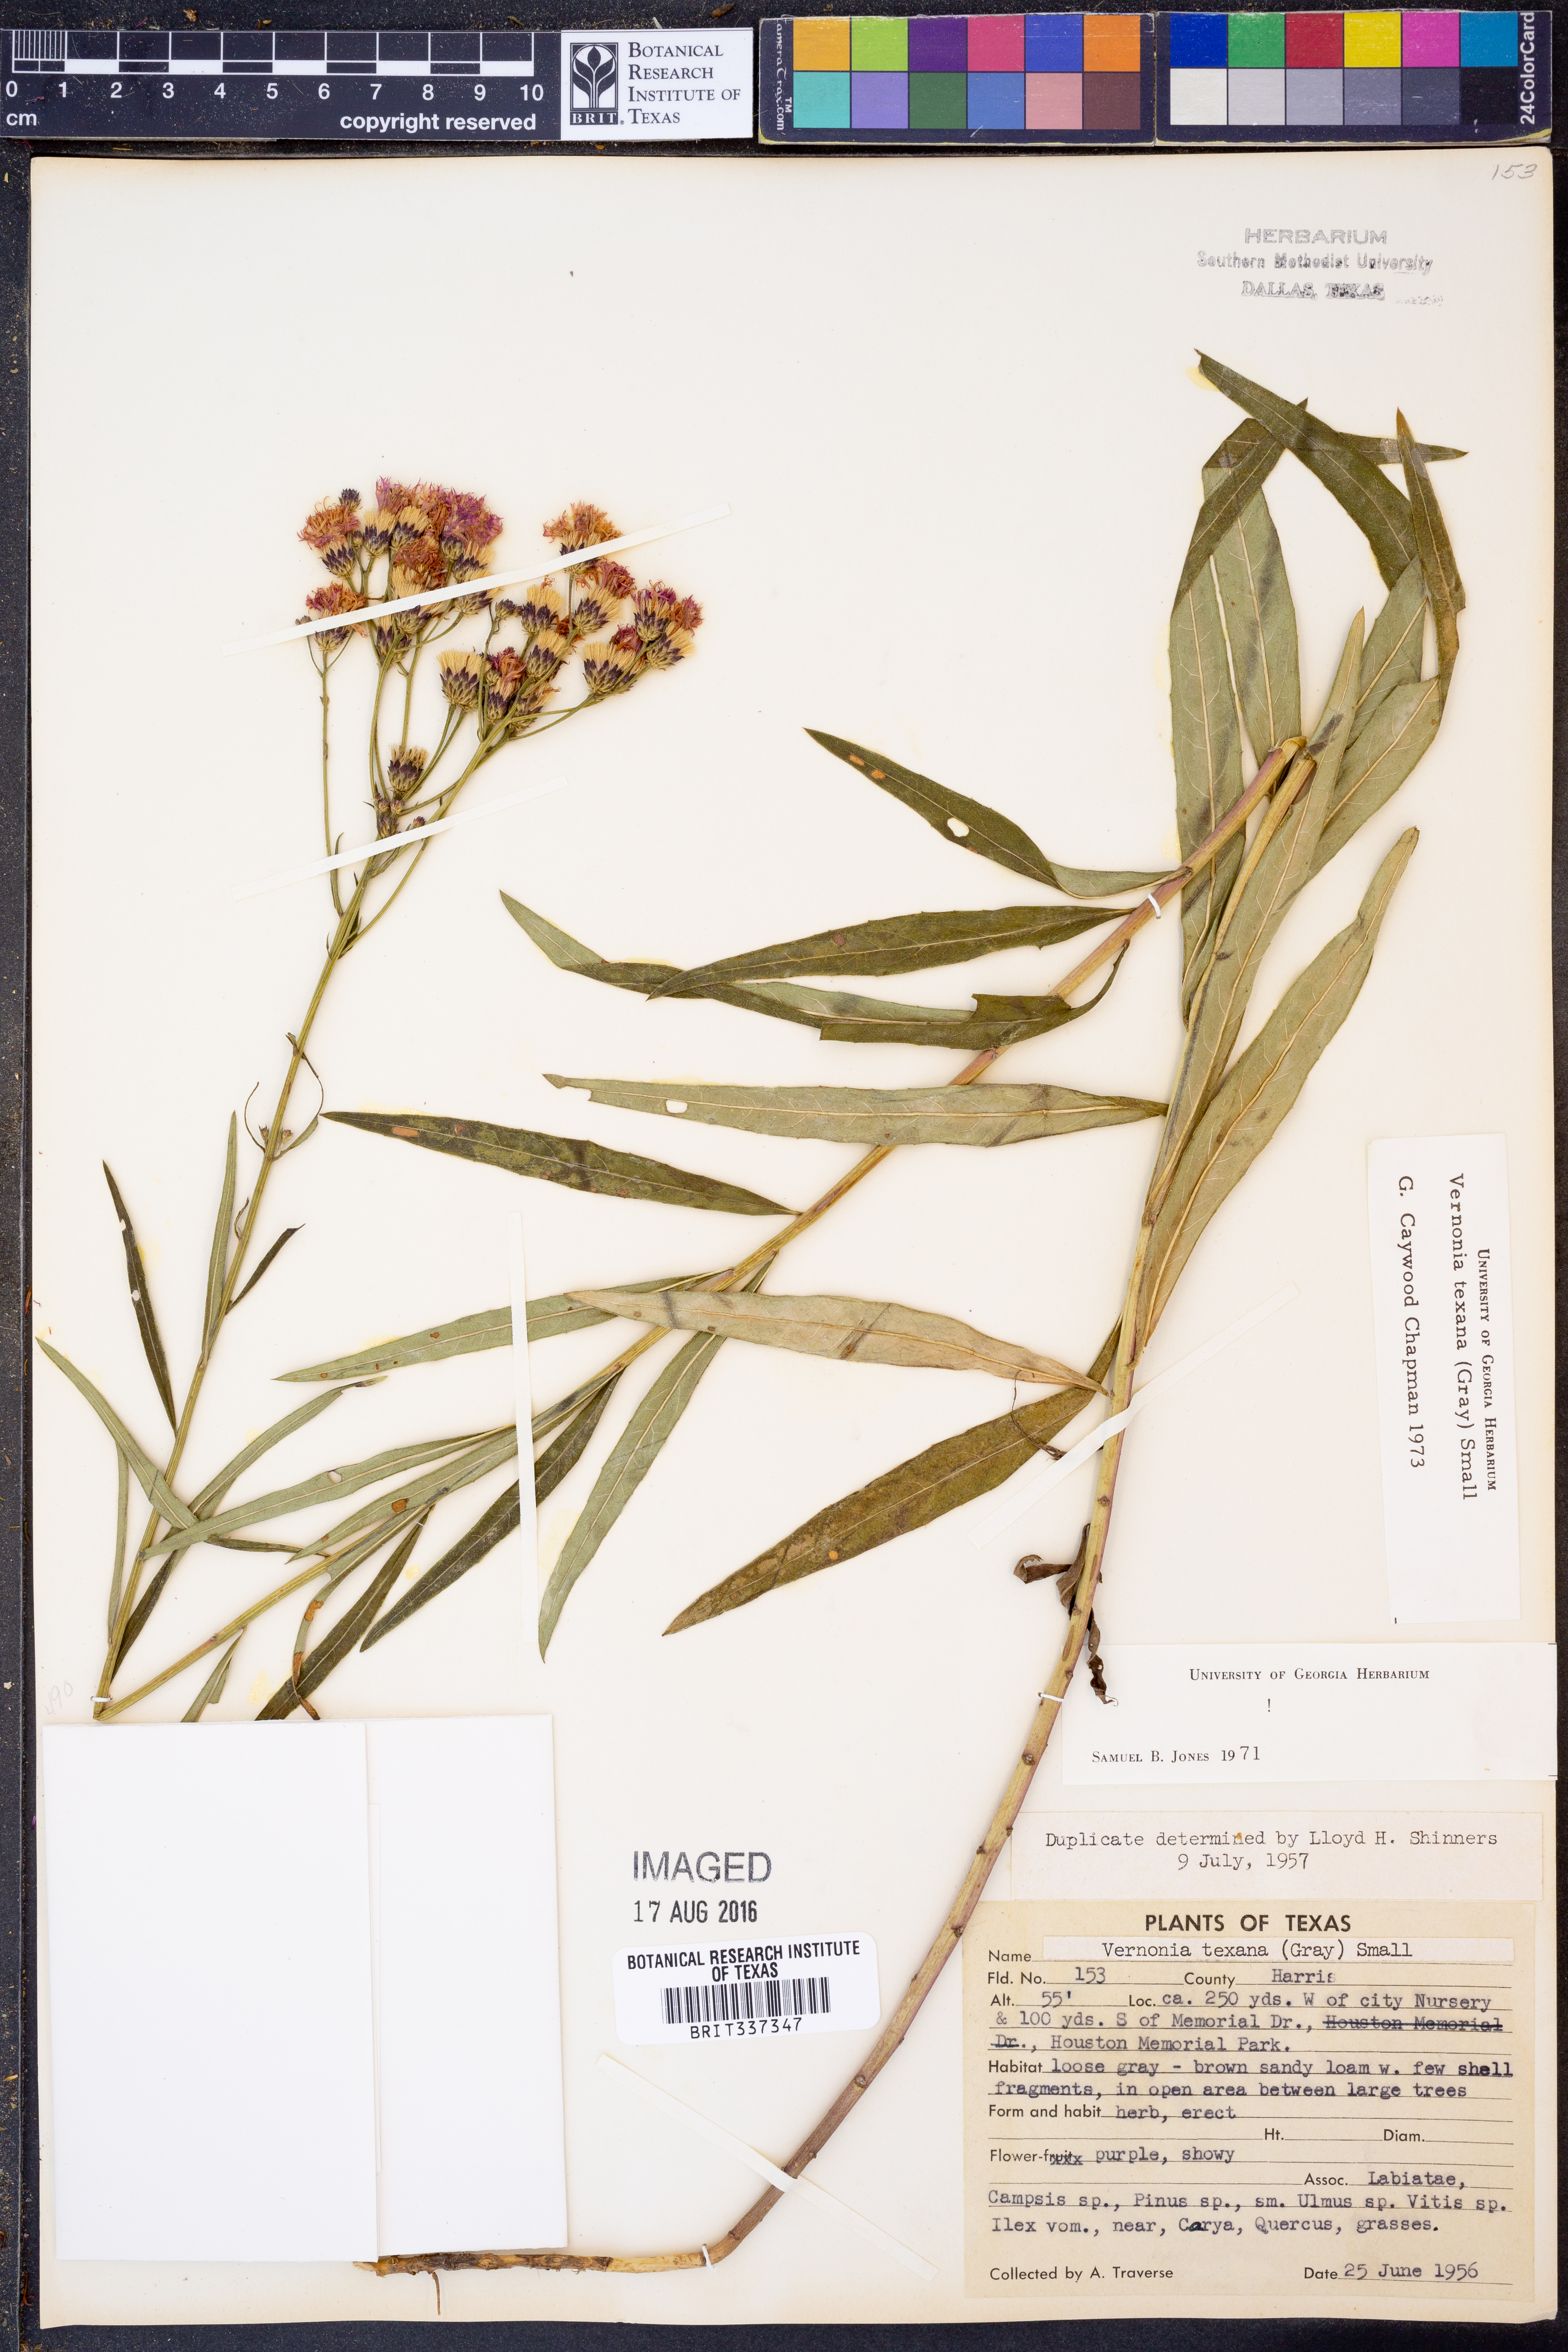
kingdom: Plantae
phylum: Tracheophyta
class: Magnoliopsida
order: Asterales
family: Asteraceae
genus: Vernonia
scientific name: Vernonia texana
